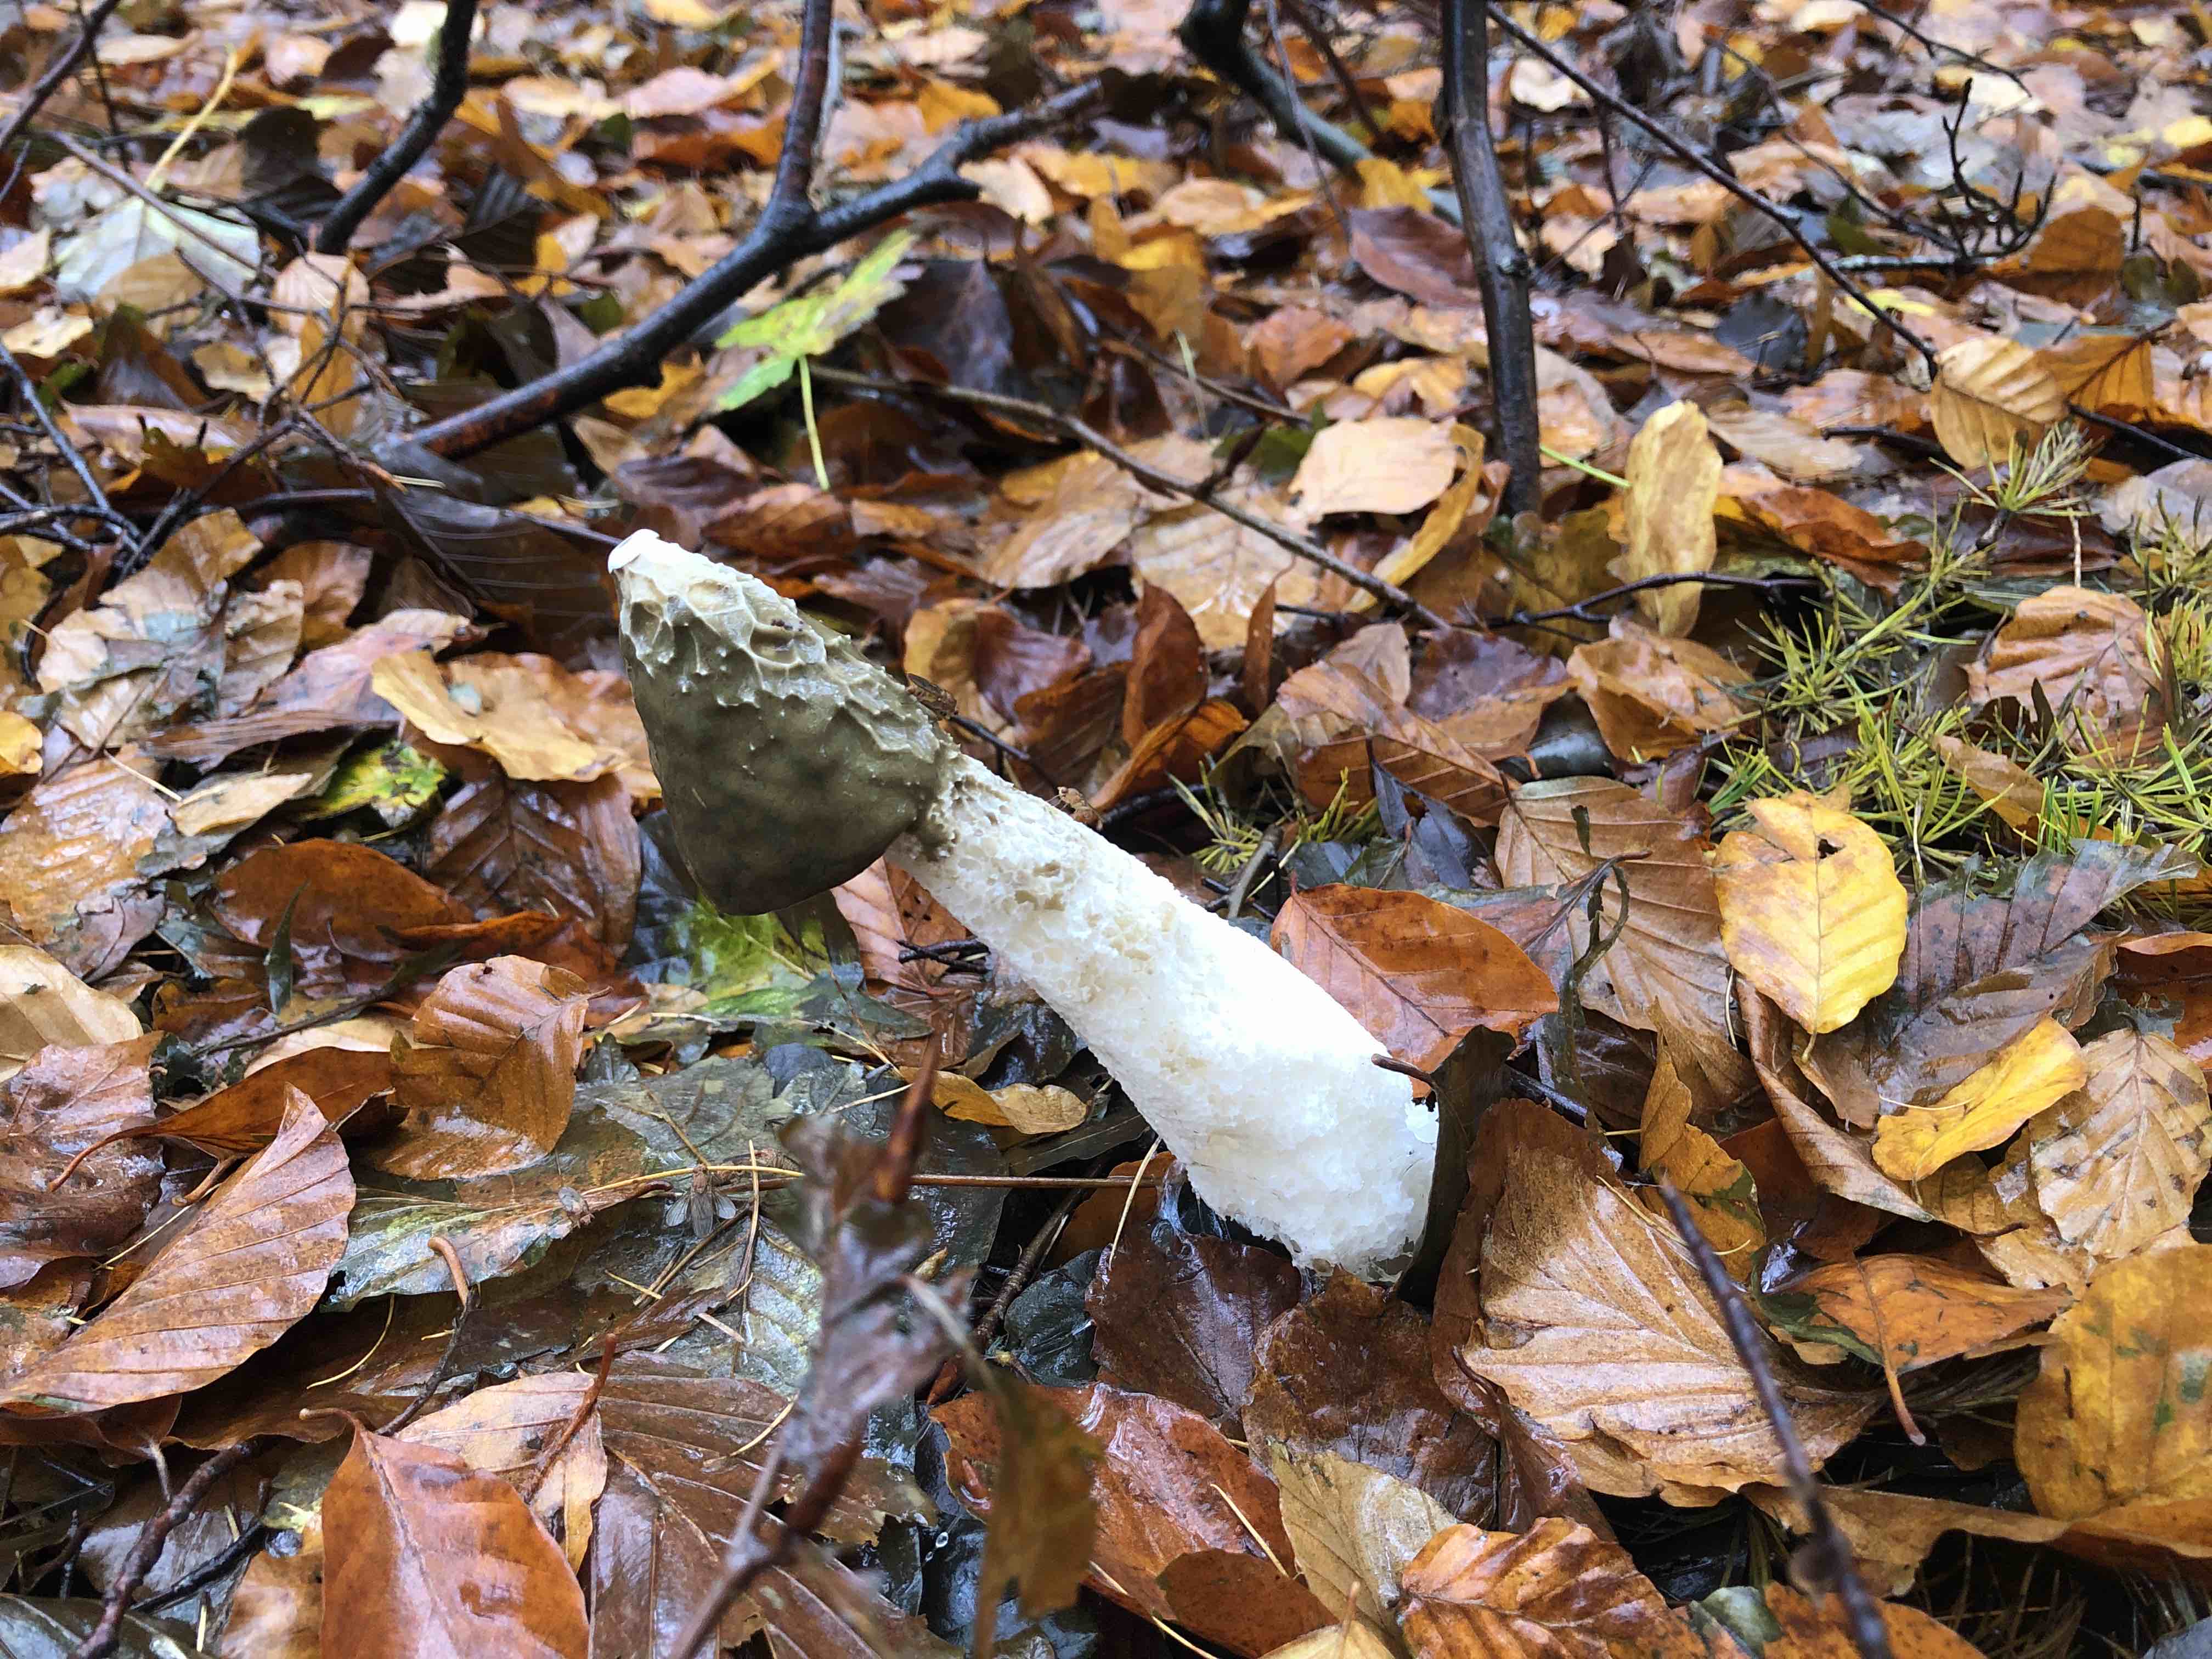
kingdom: Fungi
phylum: Basidiomycota
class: Agaricomycetes
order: Phallales
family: Phallaceae
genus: Phallus
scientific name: Phallus impudicus
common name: almindelig stinksvamp
